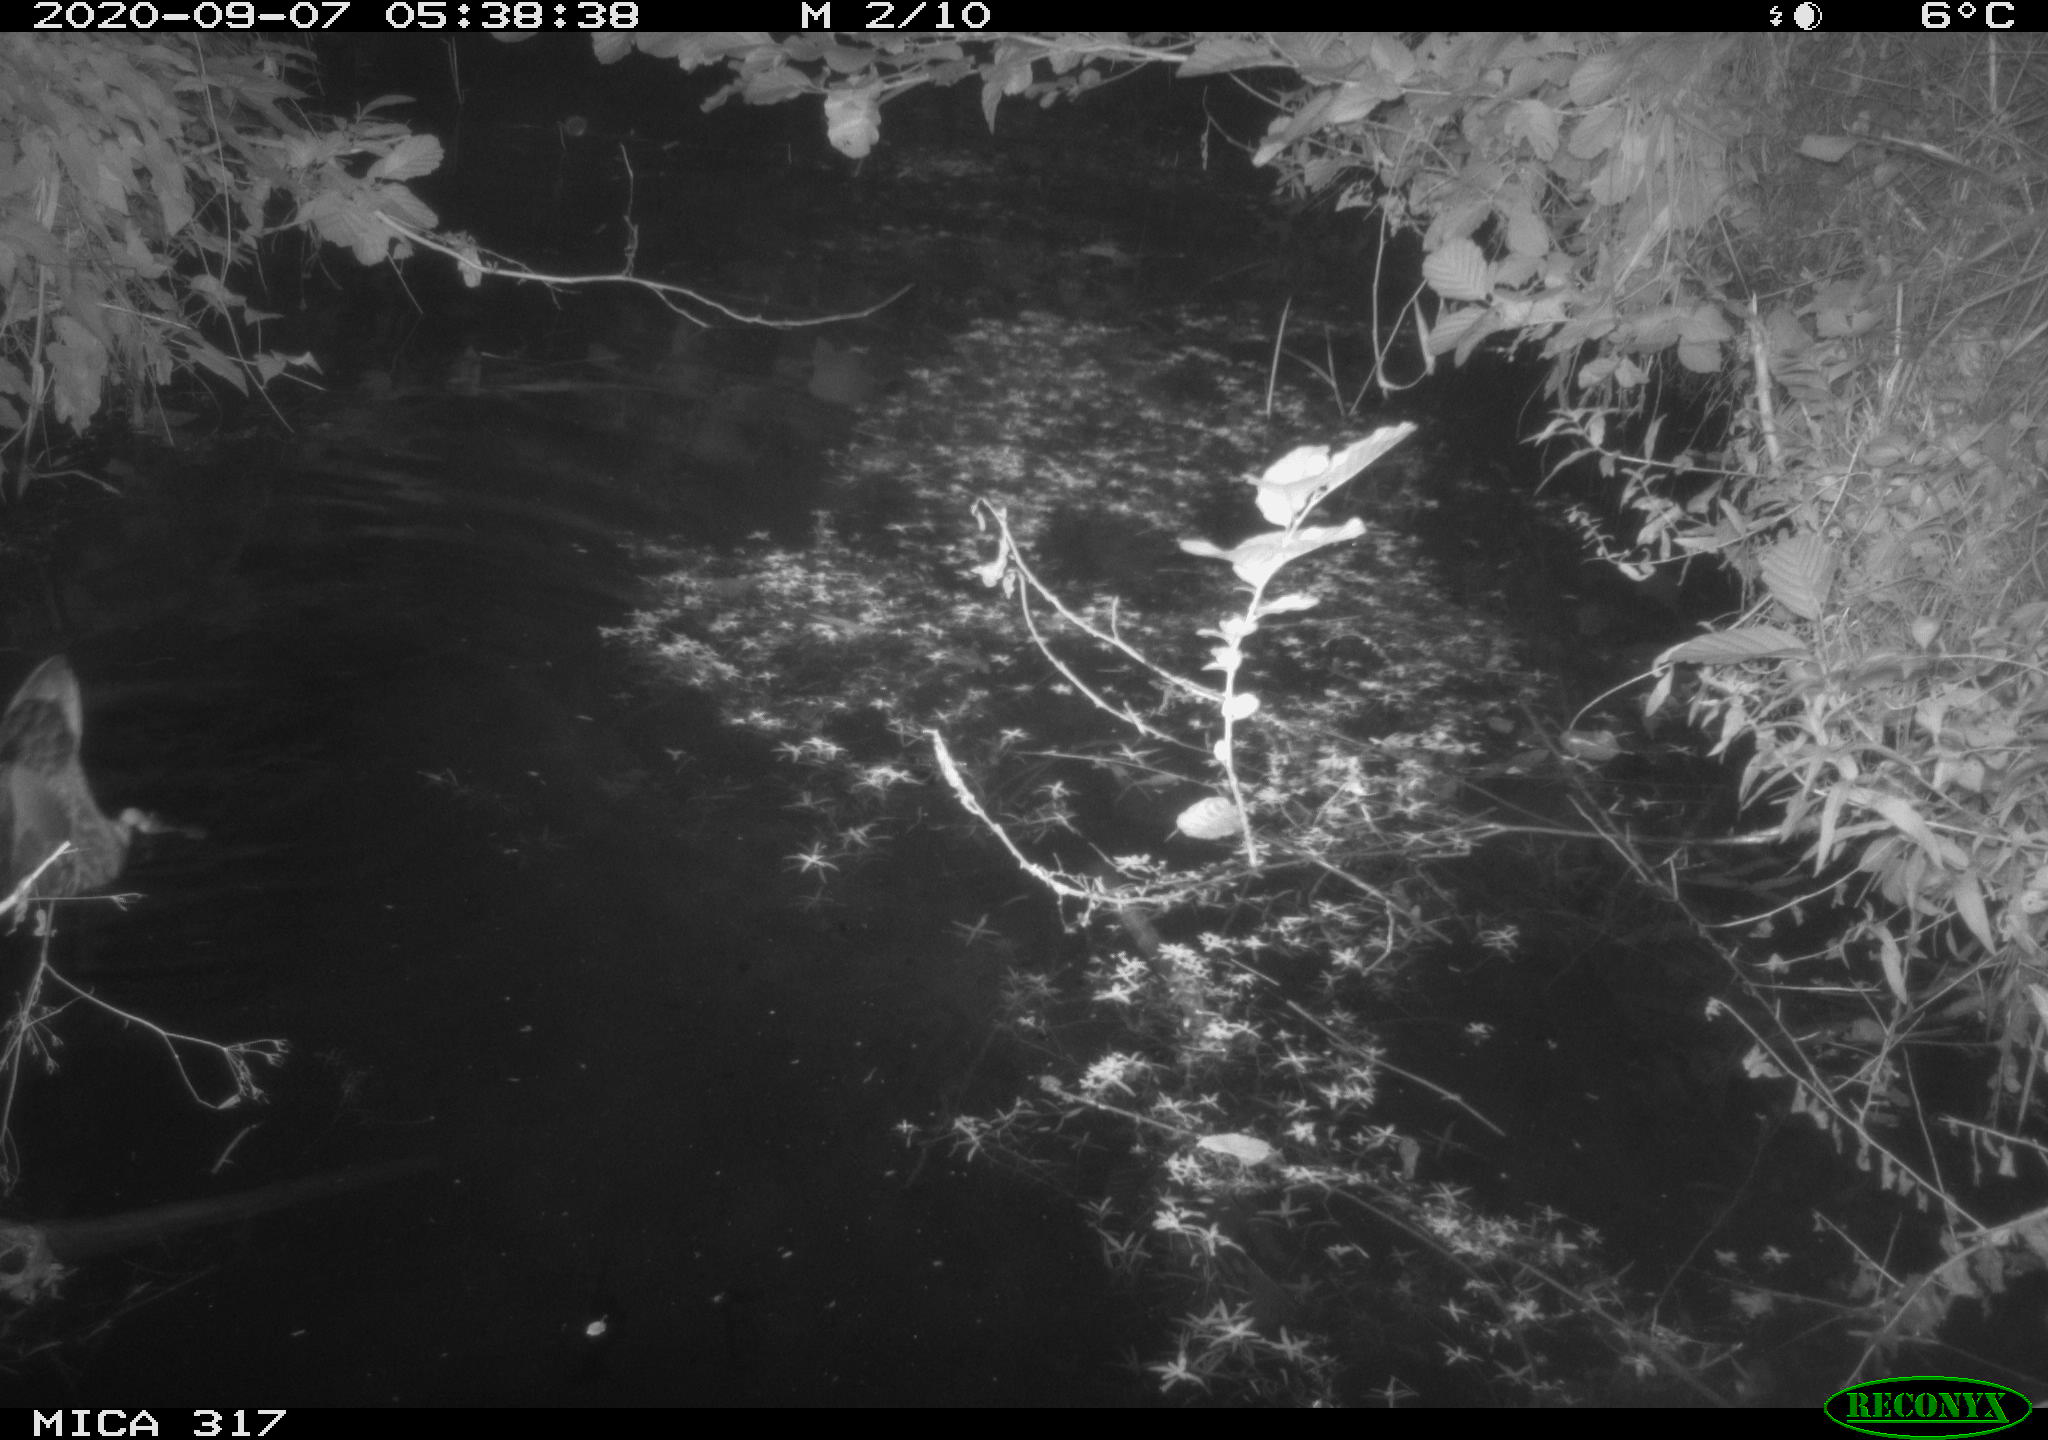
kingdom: Animalia
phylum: Chordata
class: Aves
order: Anseriformes
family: Anatidae
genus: Anas
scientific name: Anas platyrhynchos
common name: Mallard
